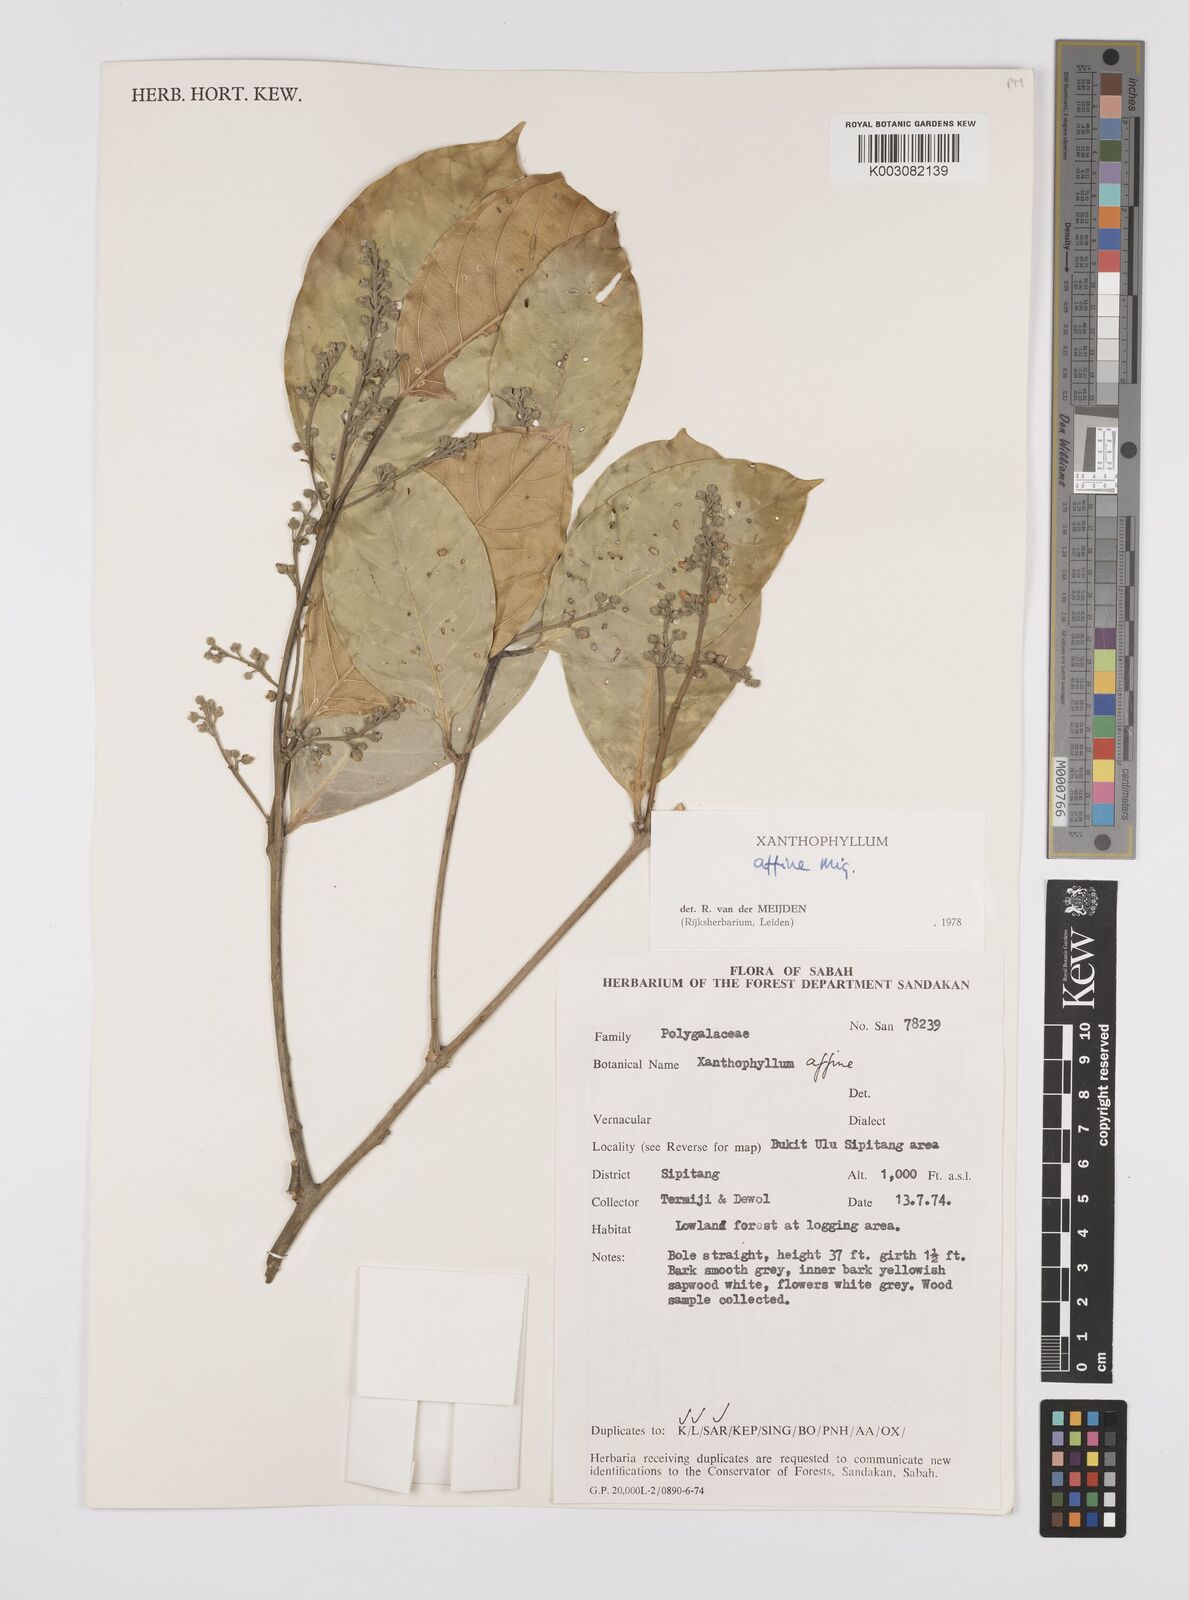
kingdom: Plantae
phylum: Tracheophyta
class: Magnoliopsida
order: Fabales
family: Polygalaceae
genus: Xanthophyllum
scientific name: Xanthophyllum flavescens
